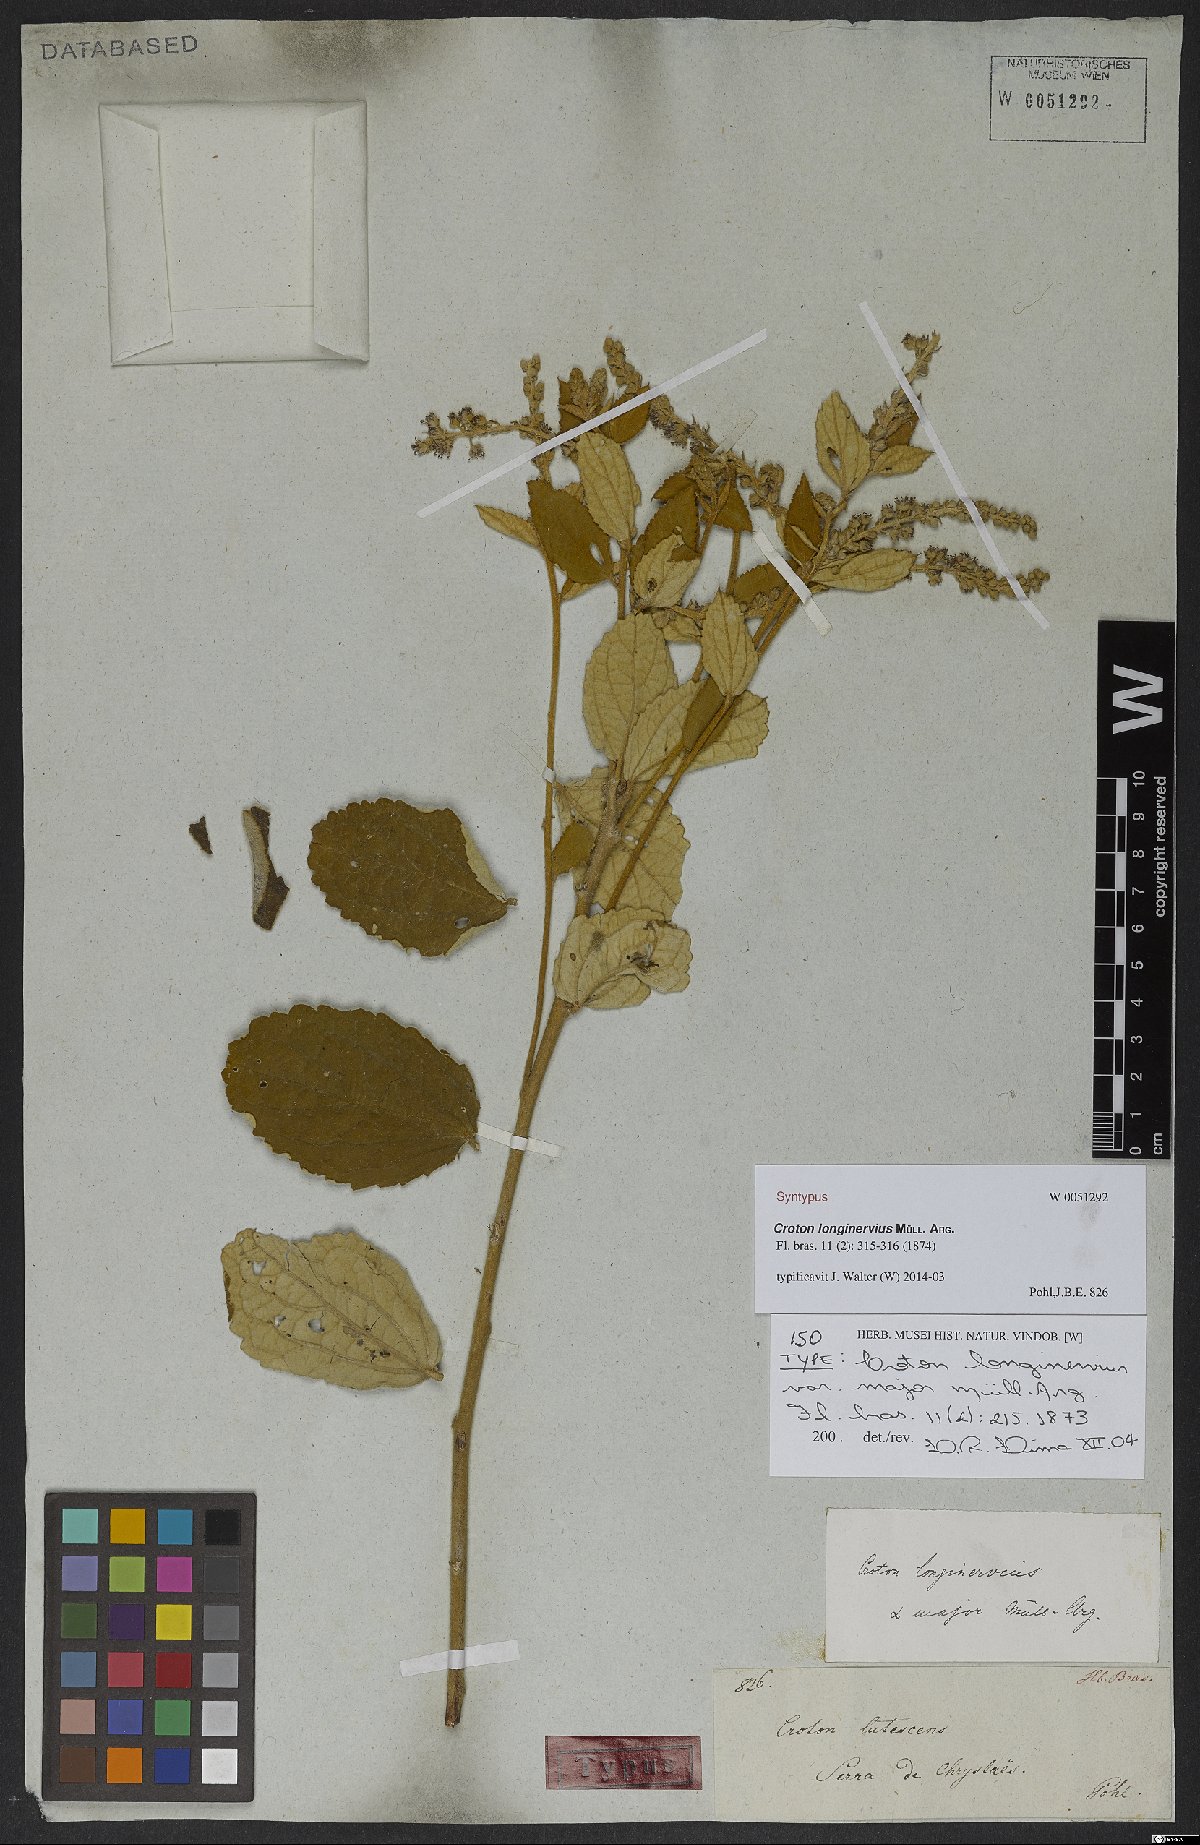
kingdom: Plantae
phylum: Tracheophyta
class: Magnoliopsida
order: Malpighiales
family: Euphorbiaceae
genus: Croton
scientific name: Croton abaitensis
